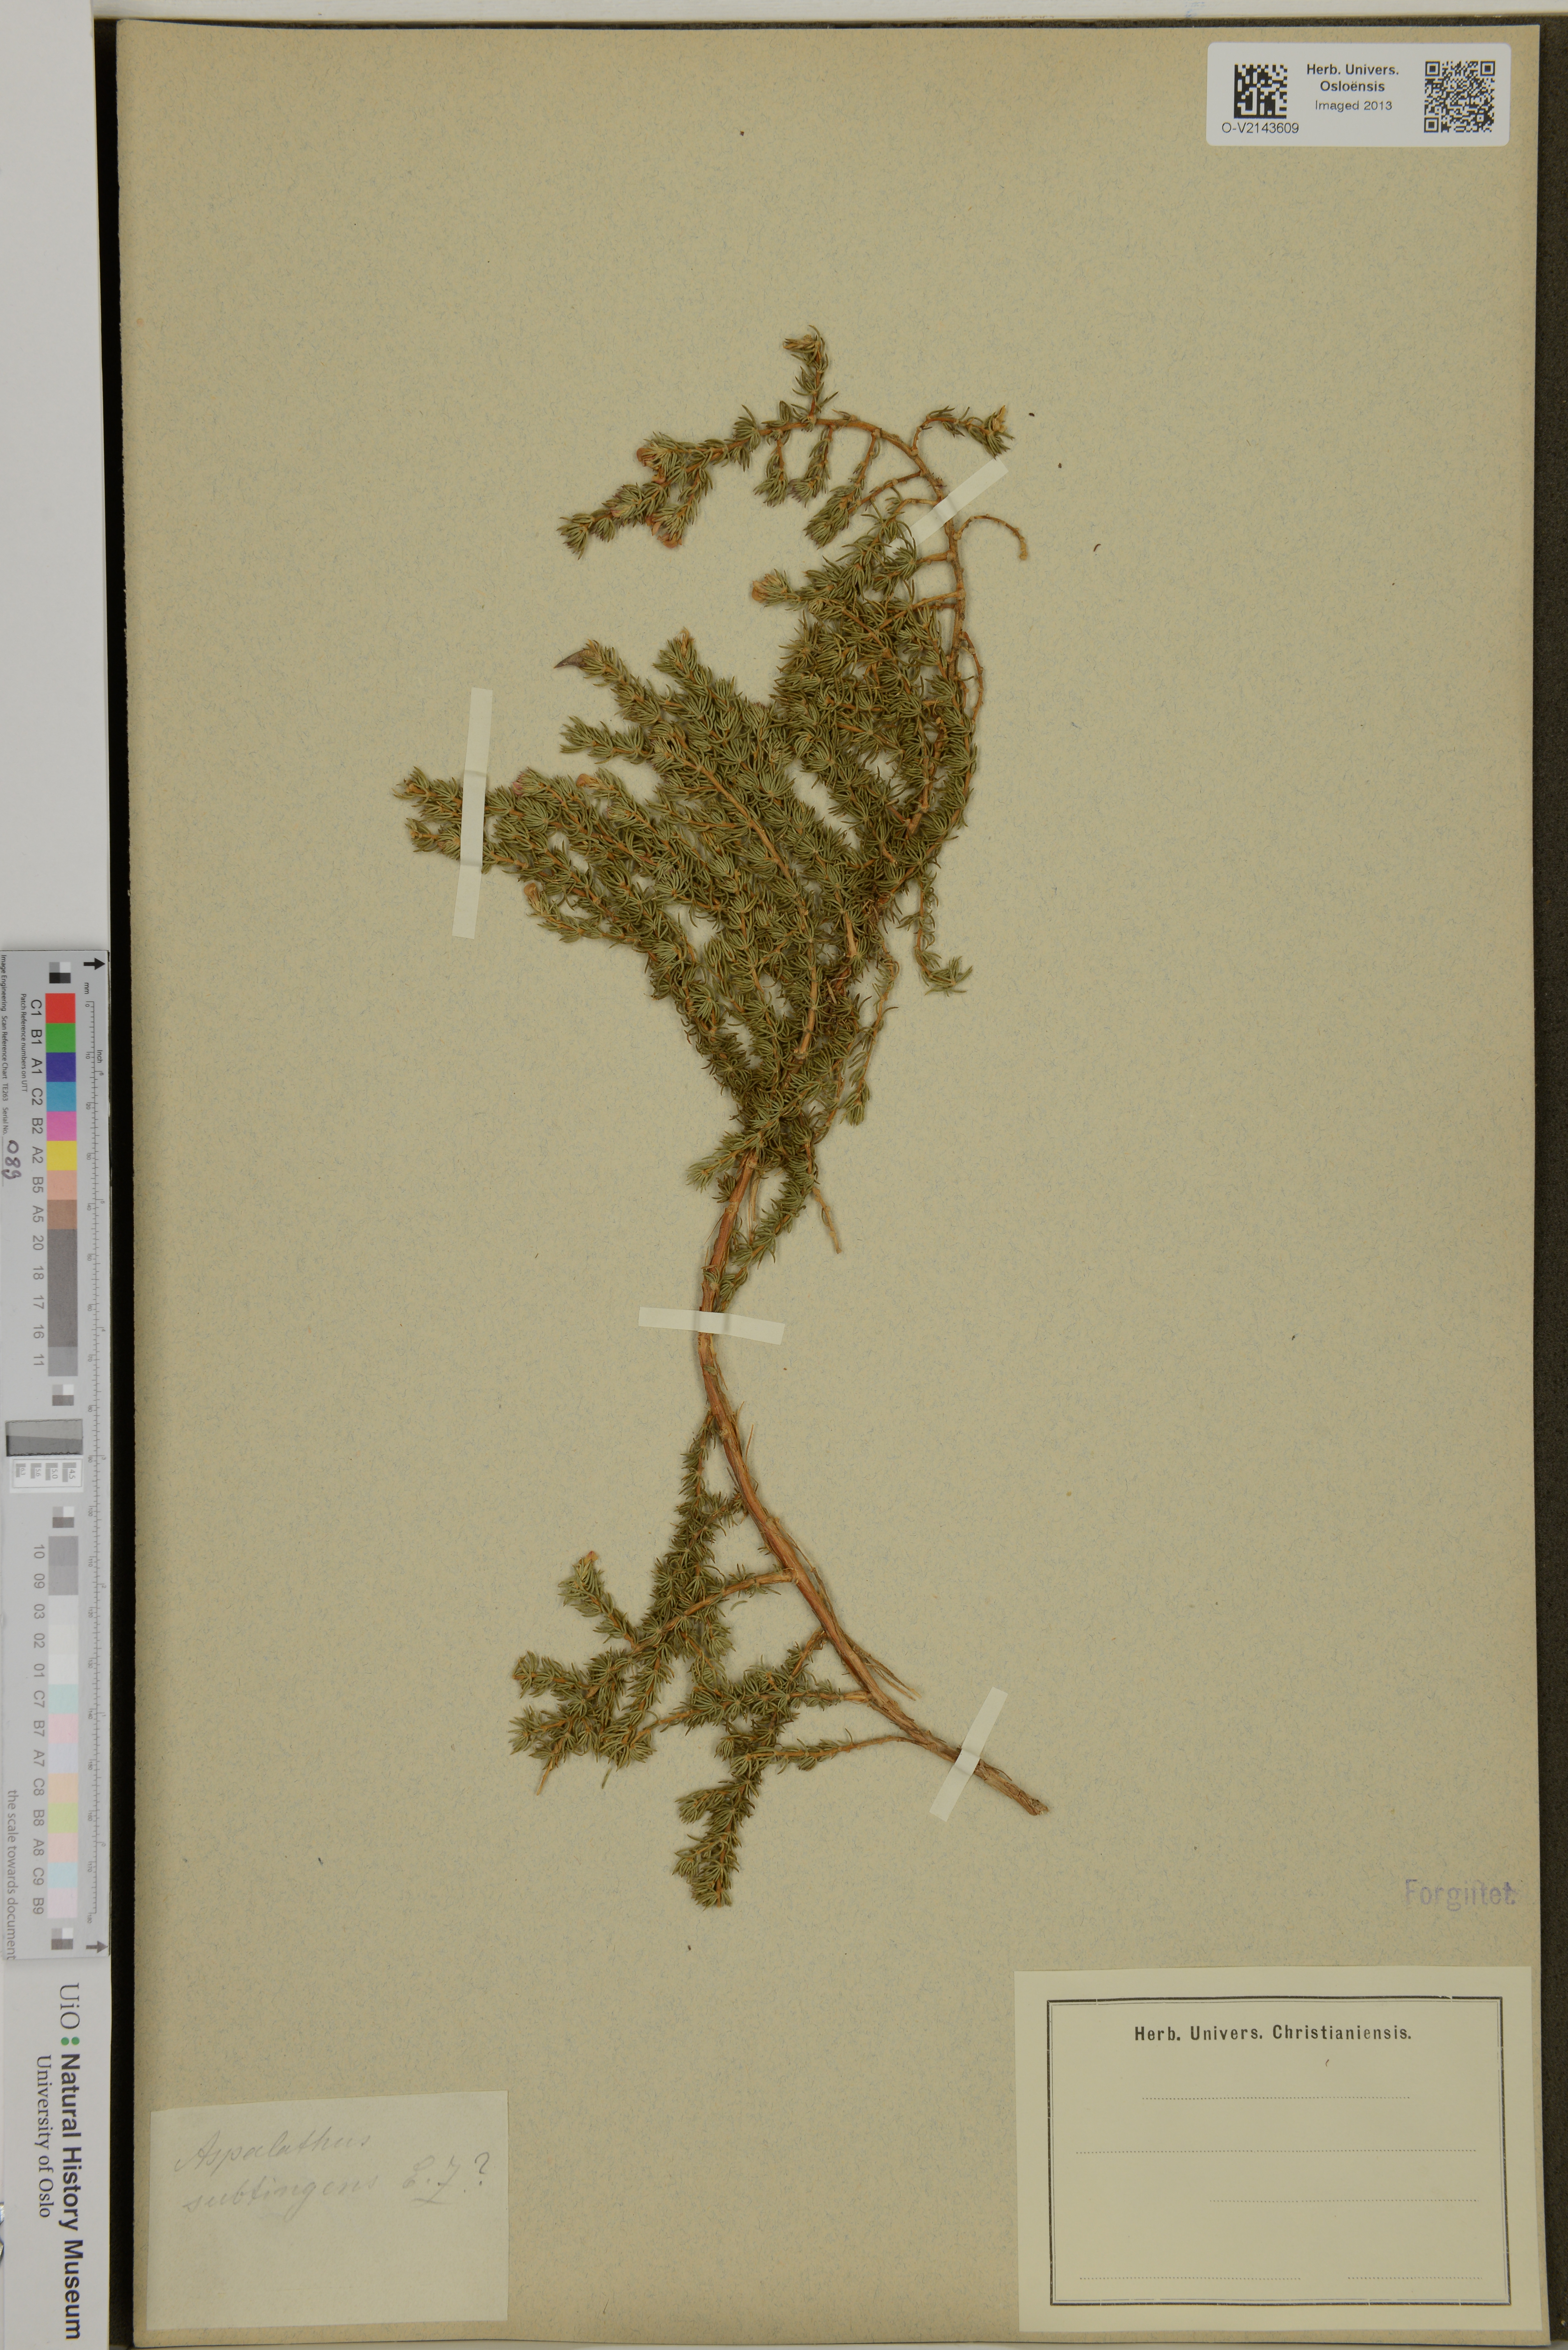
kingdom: Plantae
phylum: Tracheophyta
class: Magnoliopsida
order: Fabales
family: Fabaceae
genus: Aspalathus
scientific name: Aspalathus subtingens
